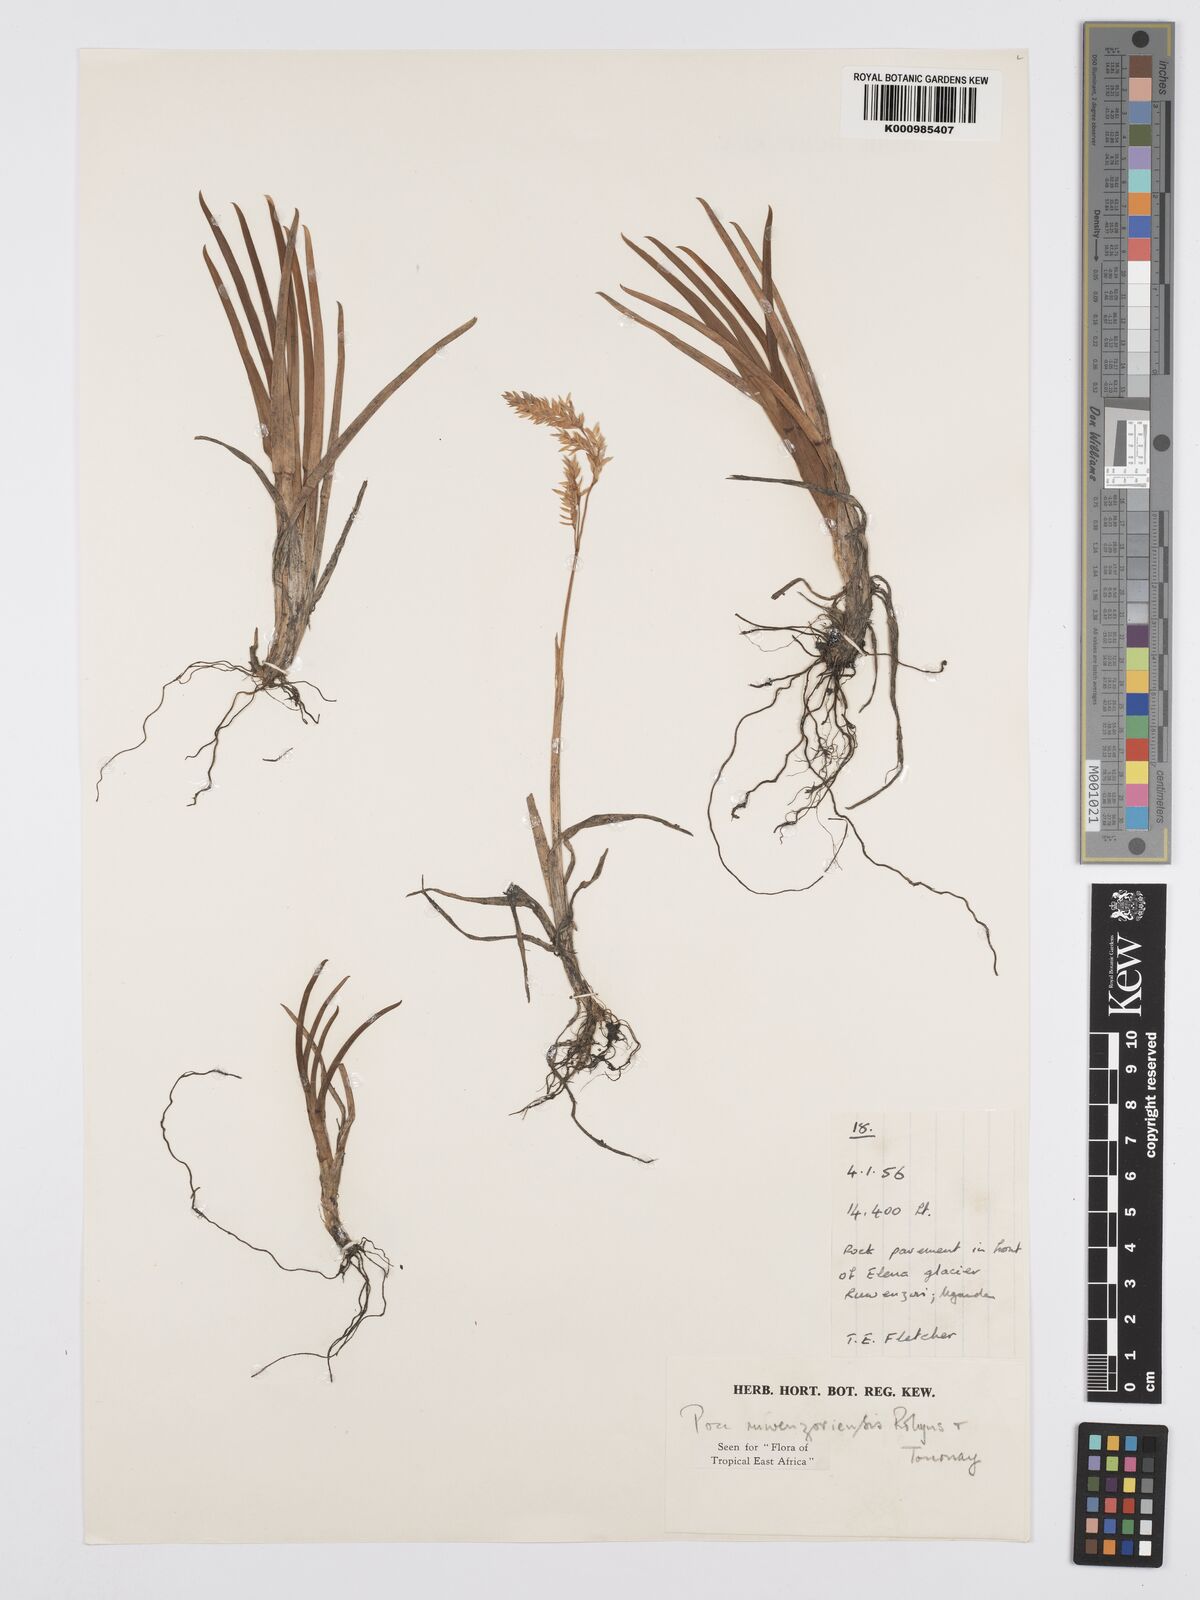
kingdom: Plantae
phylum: Tracheophyta
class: Liliopsida
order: Poales
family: Poaceae
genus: Poa
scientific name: Poa ruwenzoriensis
